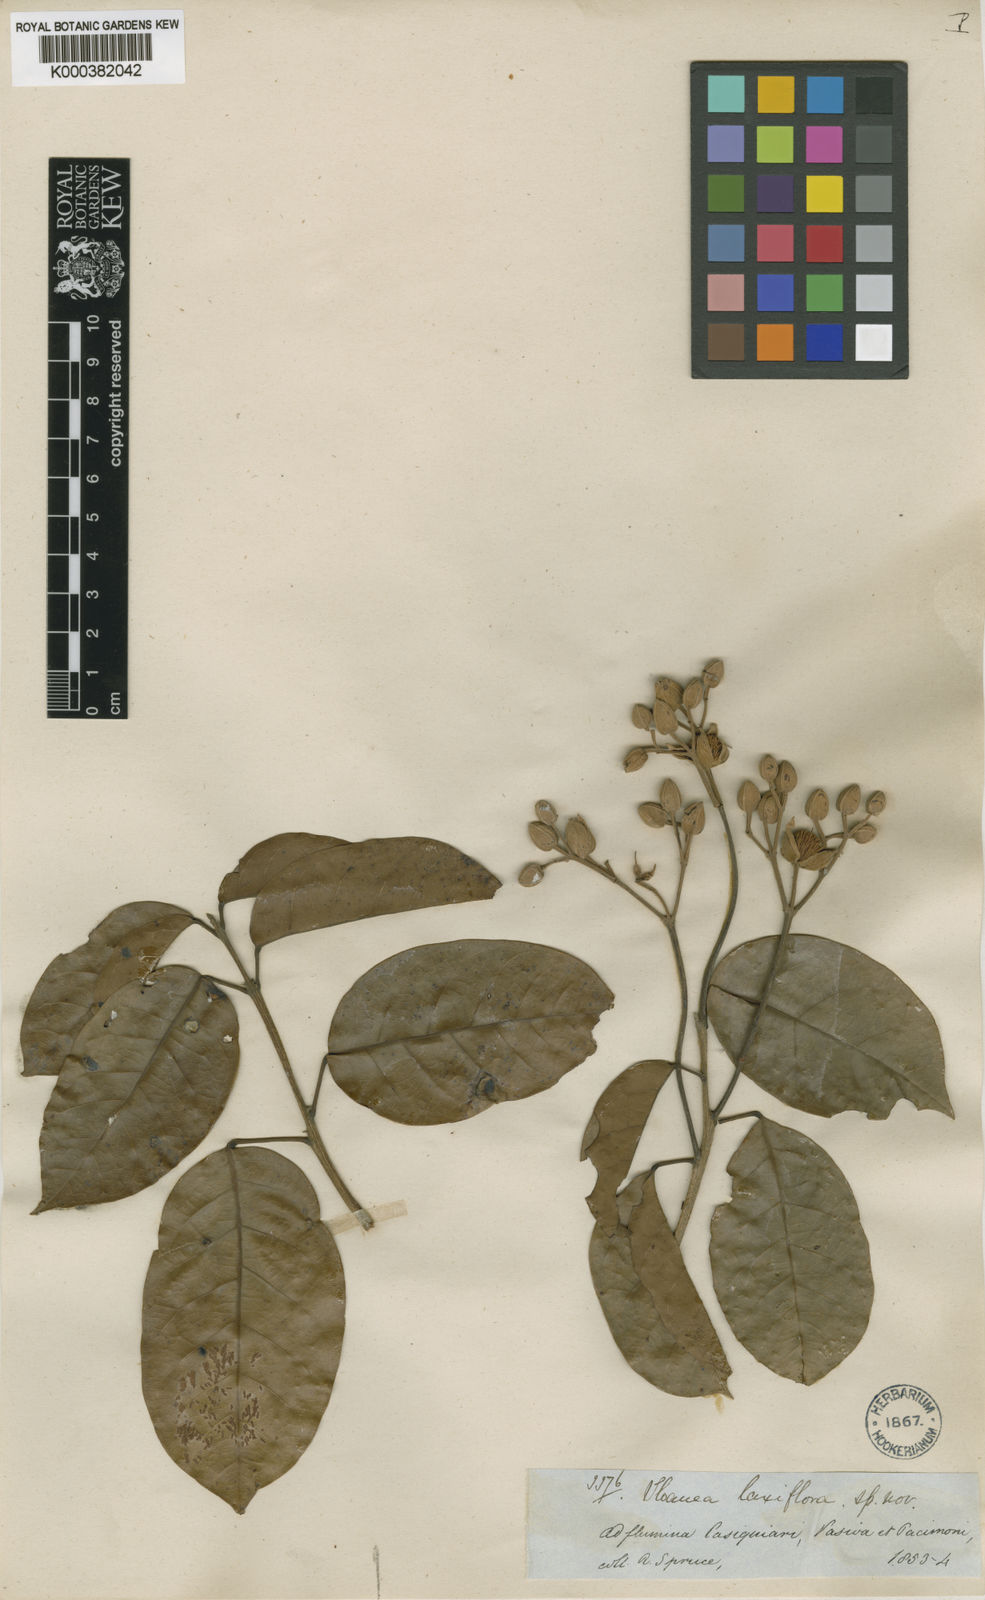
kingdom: Plantae
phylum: Tracheophyta
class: Magnoliopsida
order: Oxalidales
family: Elaeocarpaceae
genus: Sloanea
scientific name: Sloanea laxiflora
